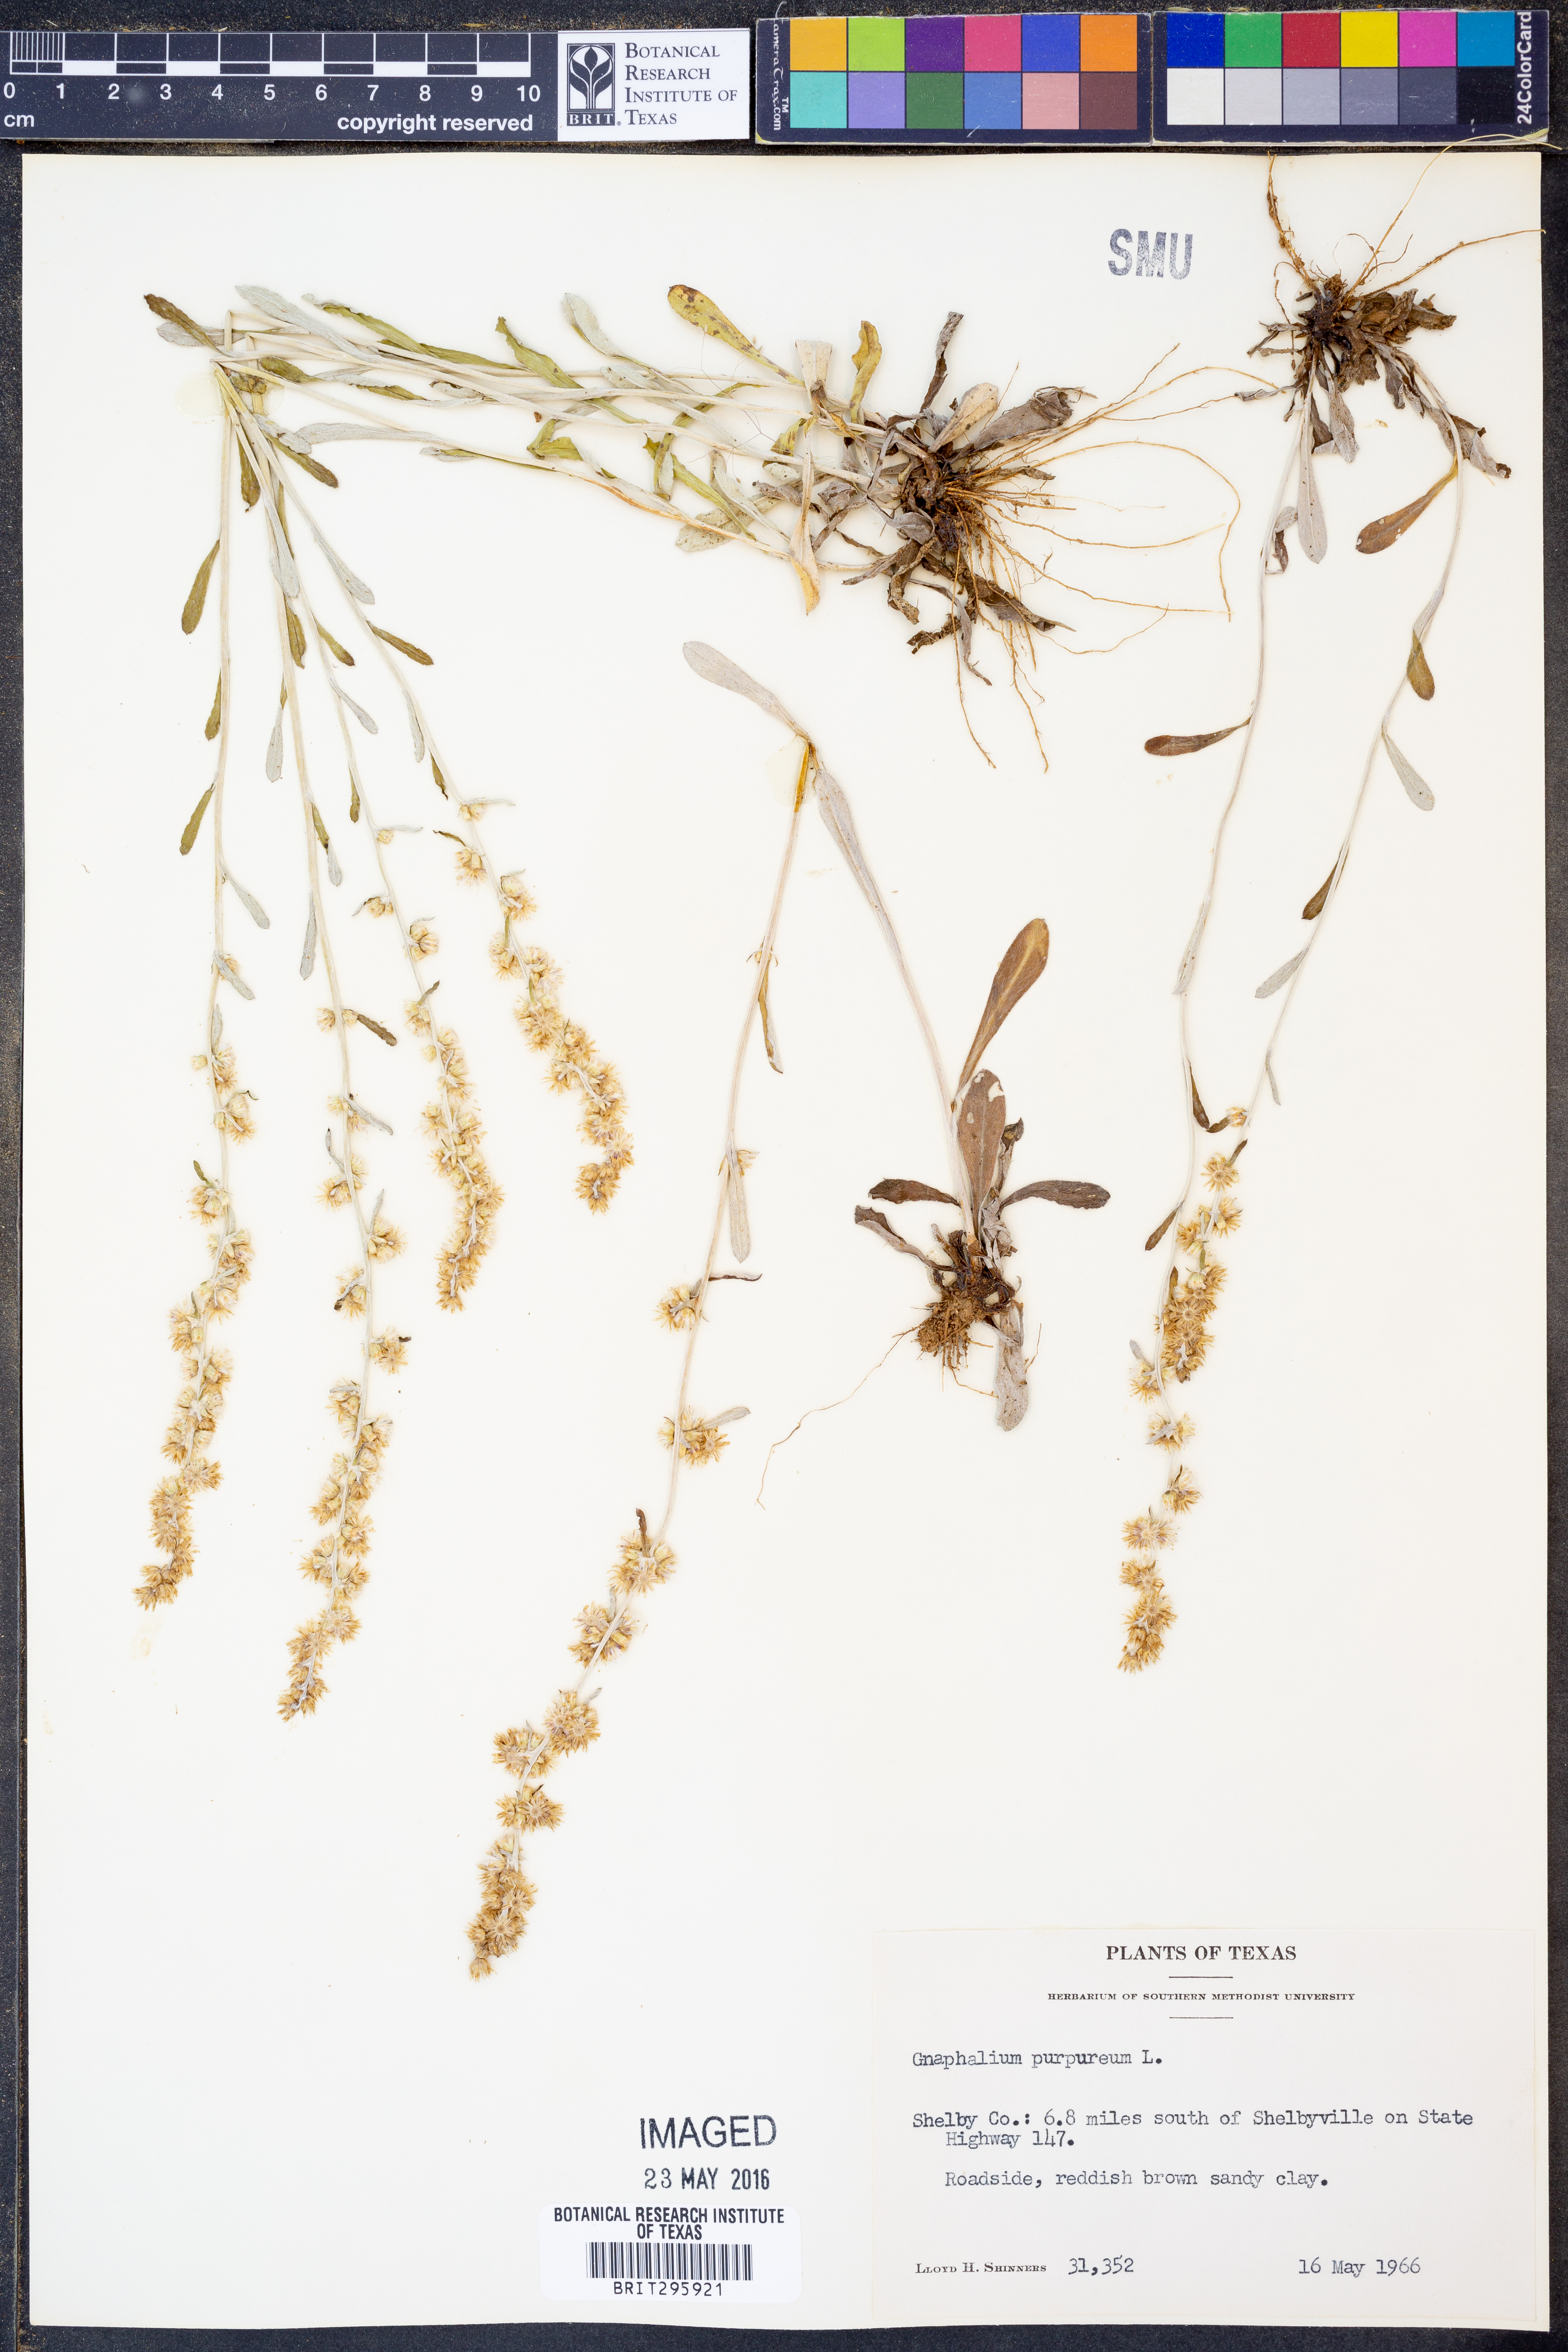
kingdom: Plantae
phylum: Tracheophyta
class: Magnoliopsida
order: Asterales
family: Asteraceae
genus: Gamochaeta
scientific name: Gamochaeta purpurea
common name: Purple cudweed
